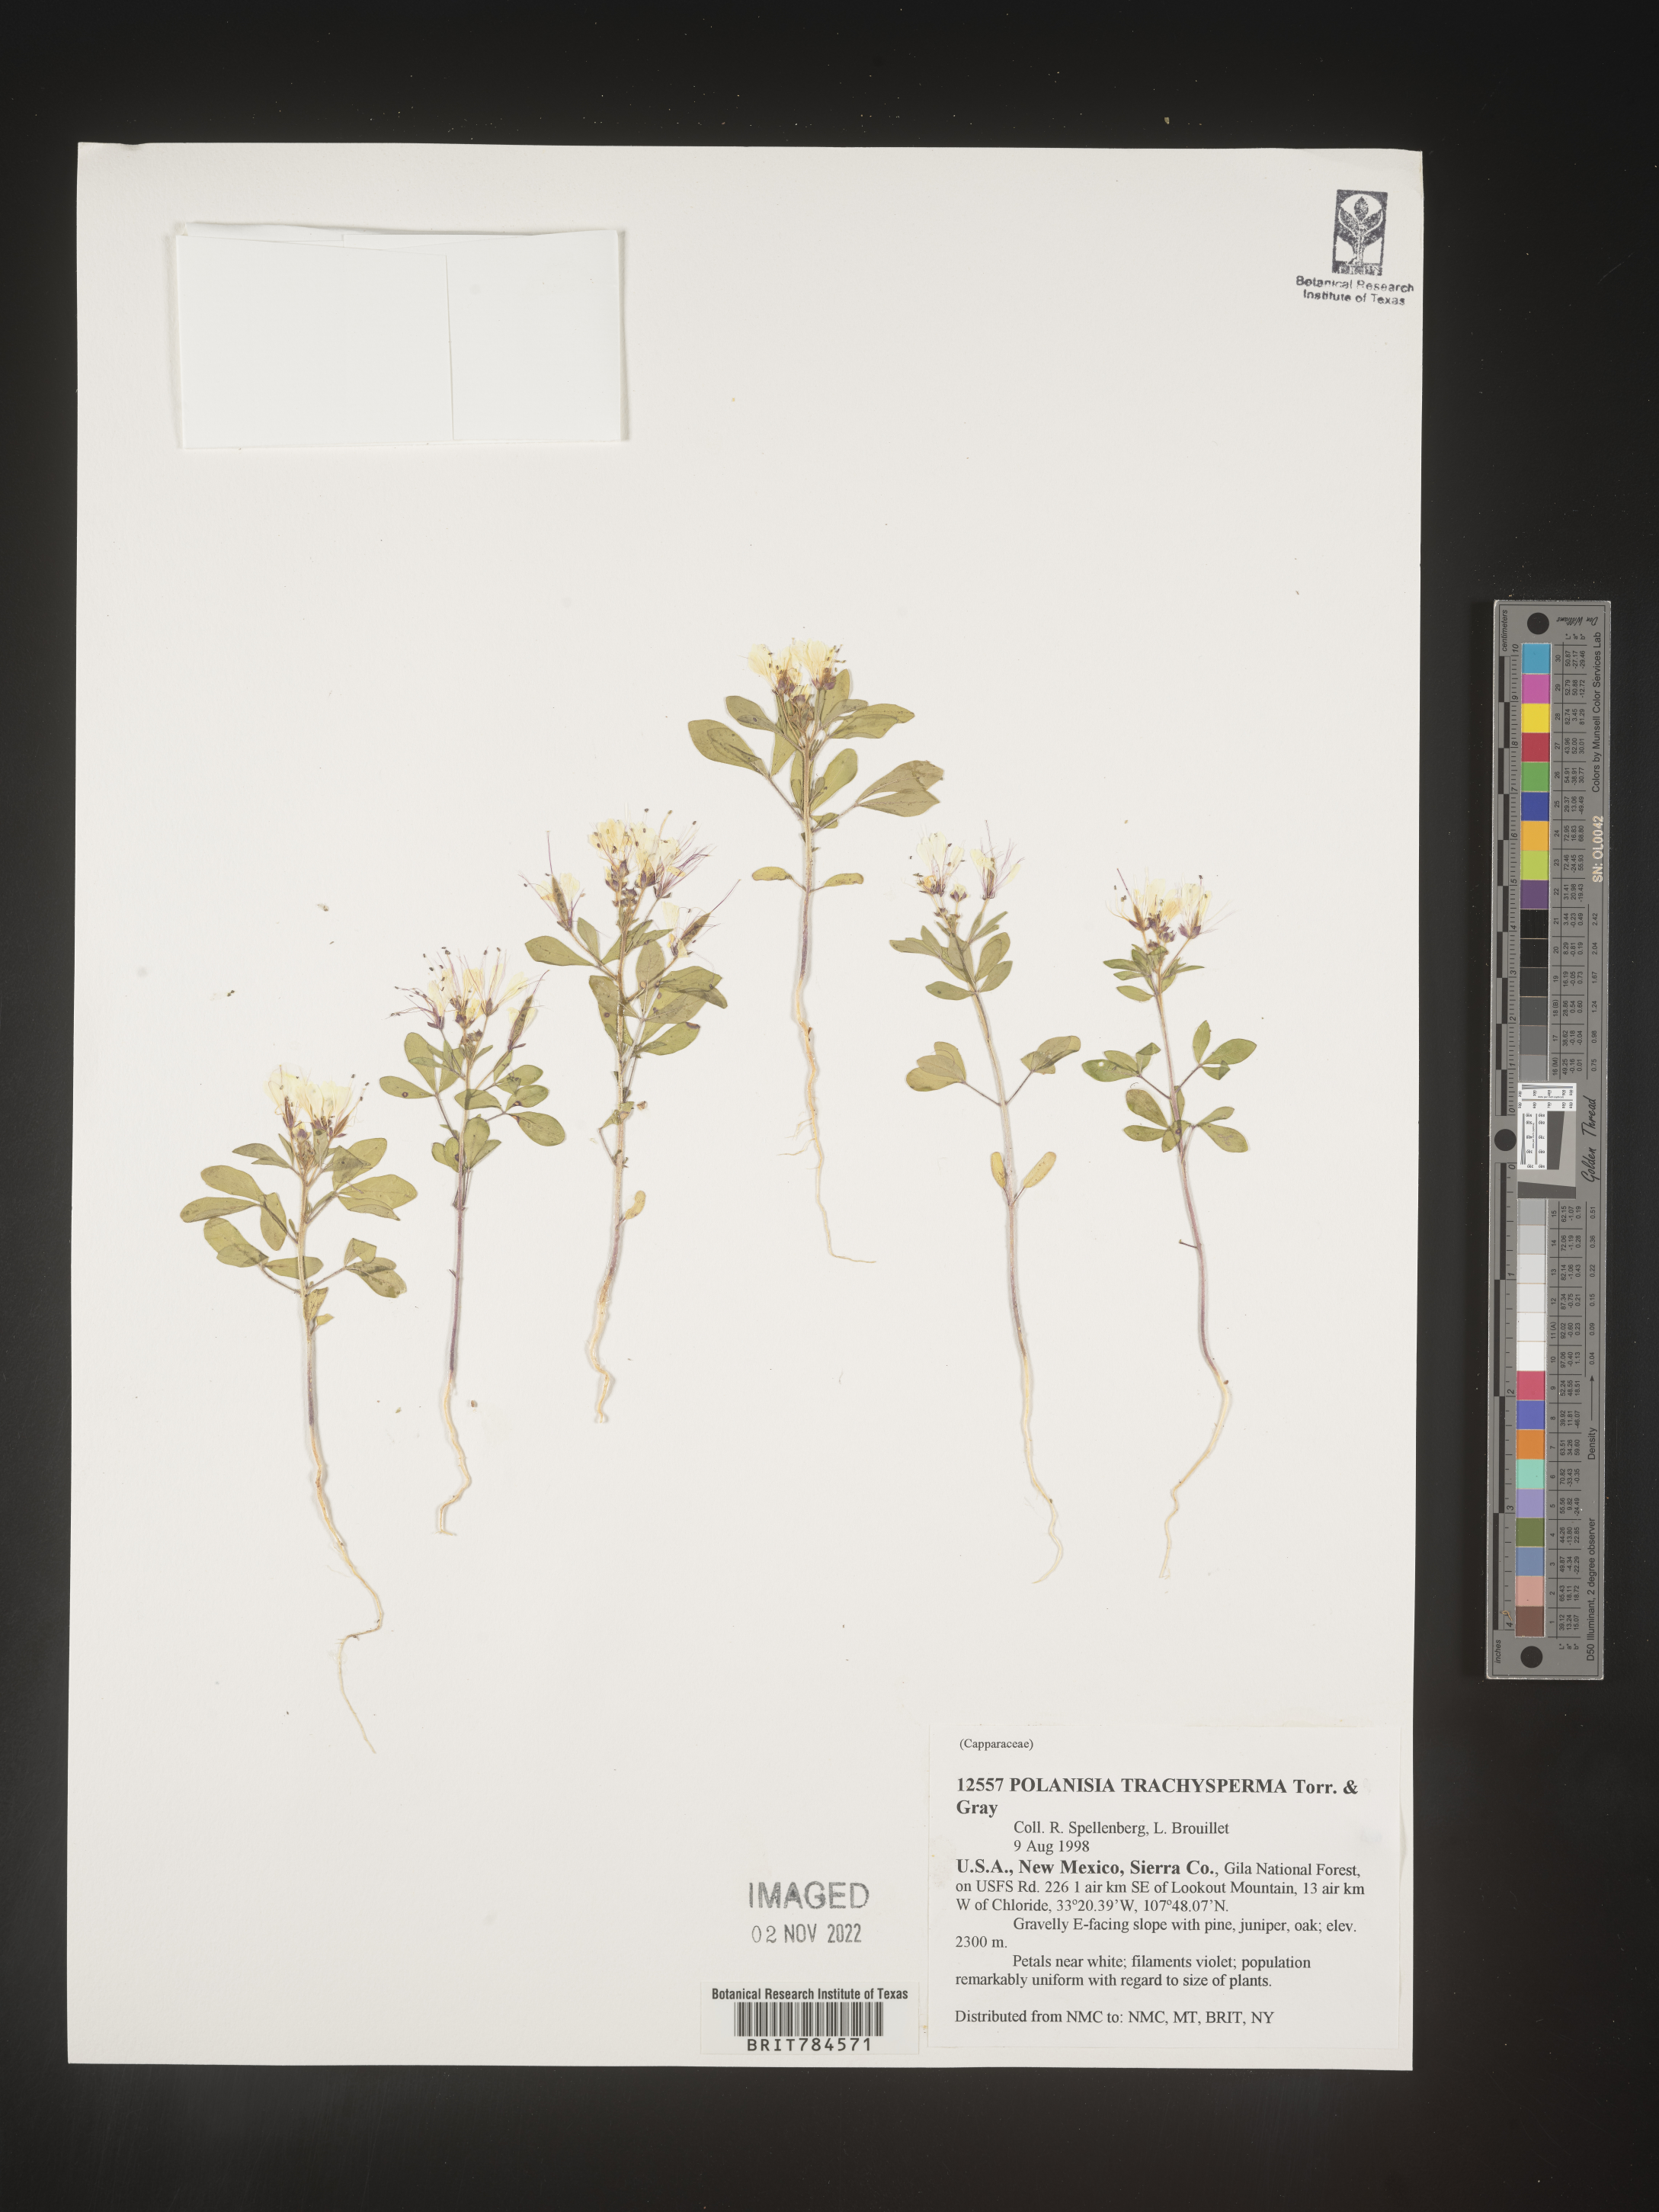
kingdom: Plantae
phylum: Tracheophyta
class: Magnoliopsida
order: Brassicales
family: Cleomaceae
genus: Polanisia
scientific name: Polanisia
